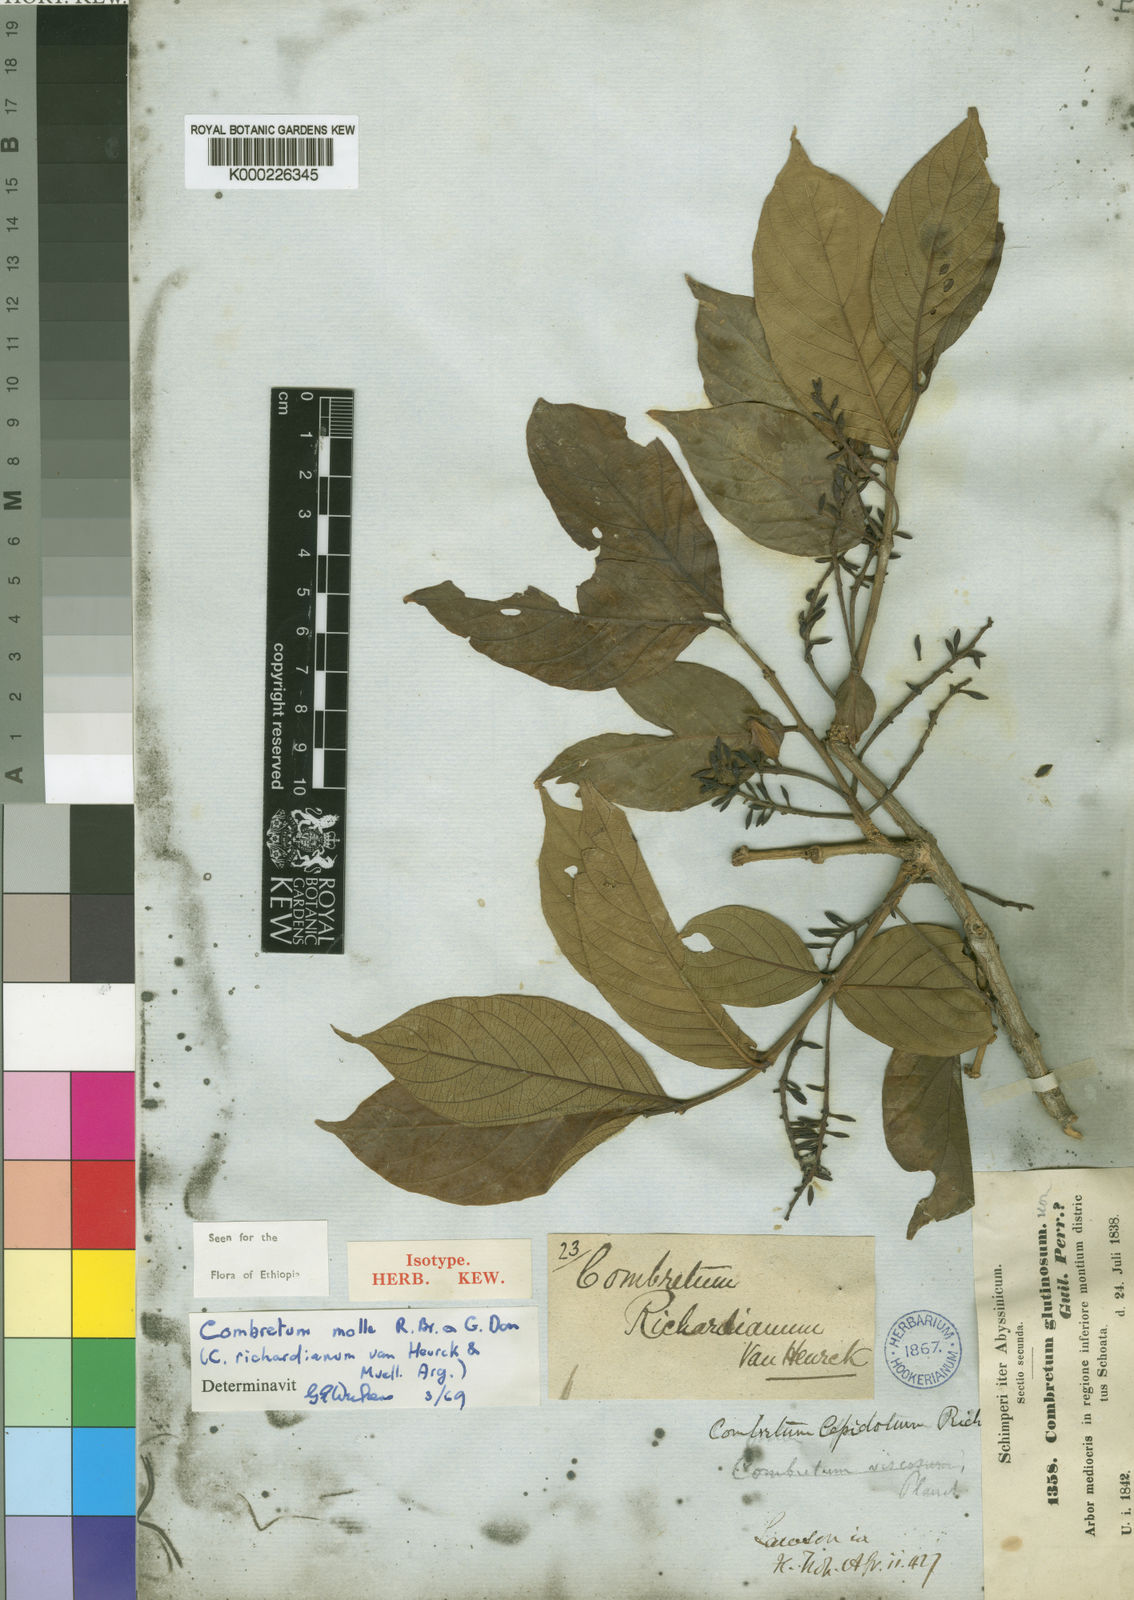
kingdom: Plantae
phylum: Tracheophyta
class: Magnoliopsida
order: Myrtales
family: Combretaceae
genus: Combretum
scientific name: Combretum molle
